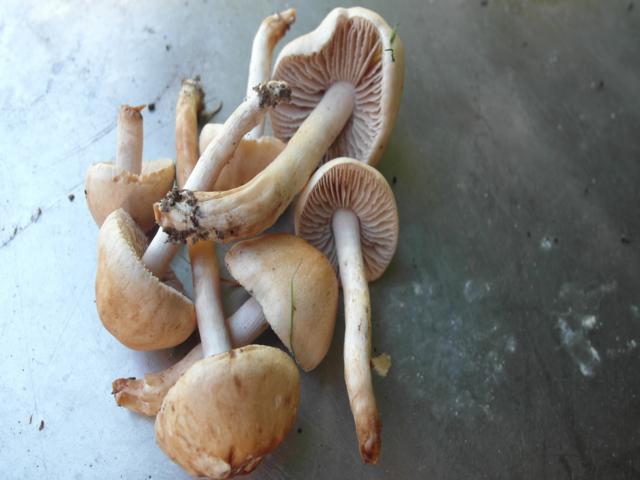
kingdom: Fungi
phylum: Basidiomycota
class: Agaricomycetes
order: Agaricales
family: Hymenogastraceae
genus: Hebeloma
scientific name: Hebeloma sacchariolens
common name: sødtduftende tåreblad
